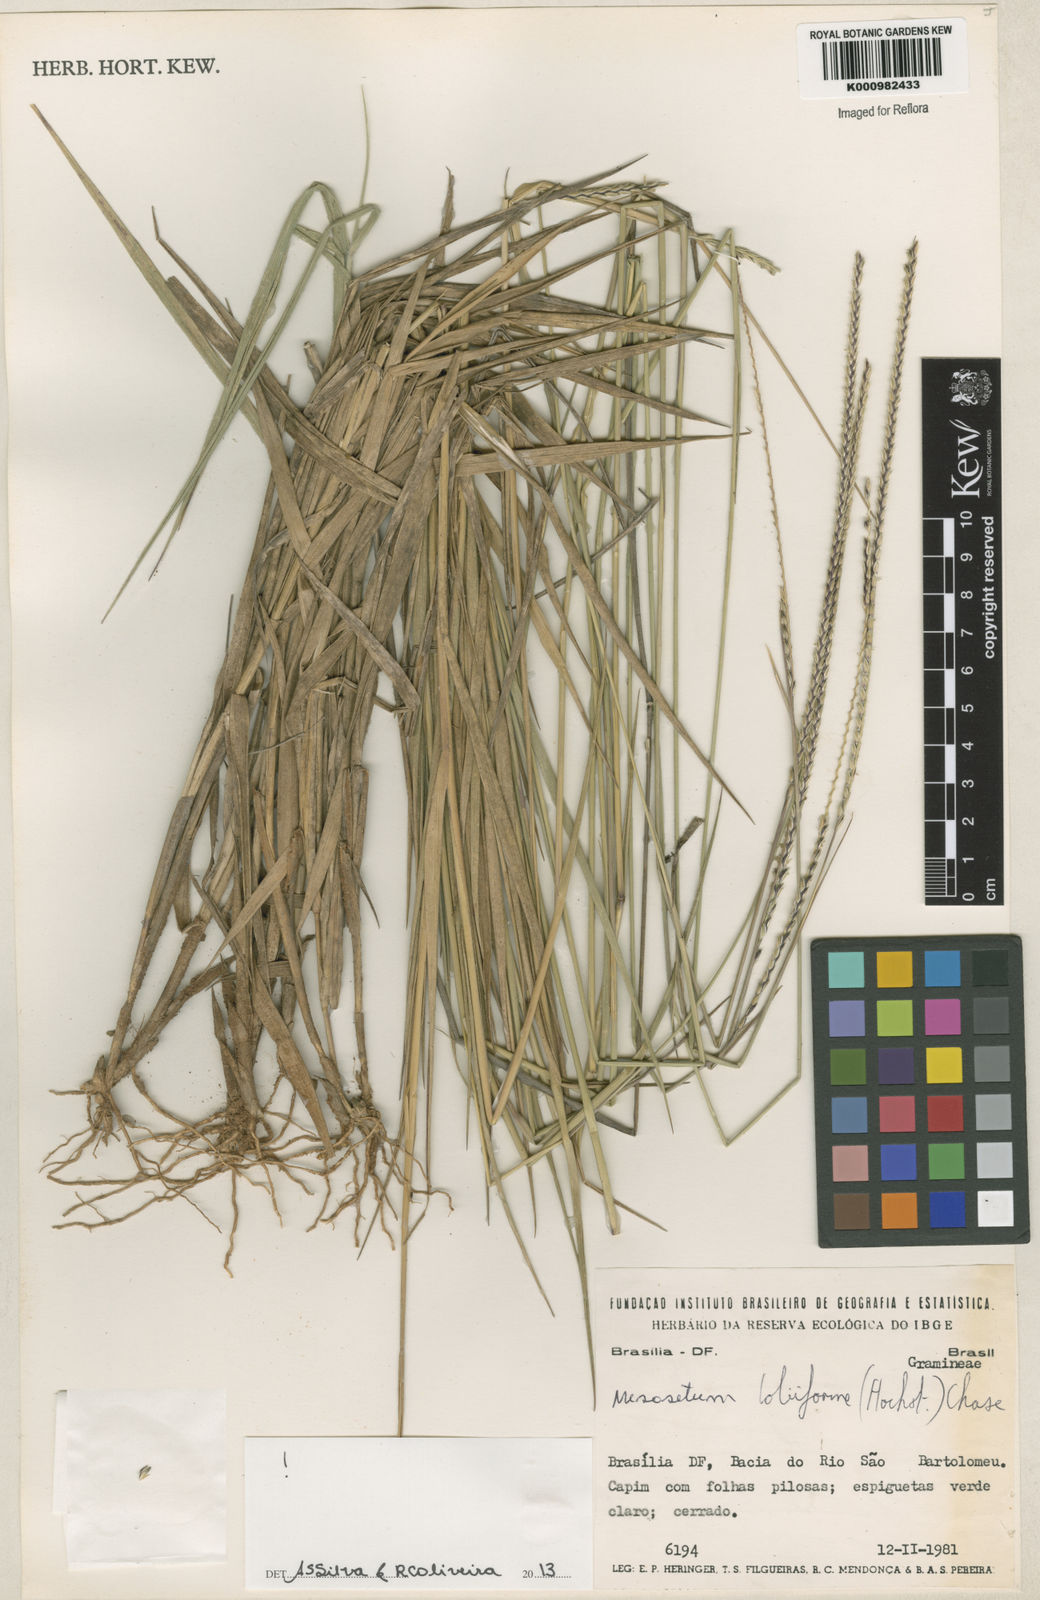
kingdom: Plantae
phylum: Tracheophyta
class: Liliopsida
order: Poales
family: Poaceae
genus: Mesosetum
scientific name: Mesosetum
